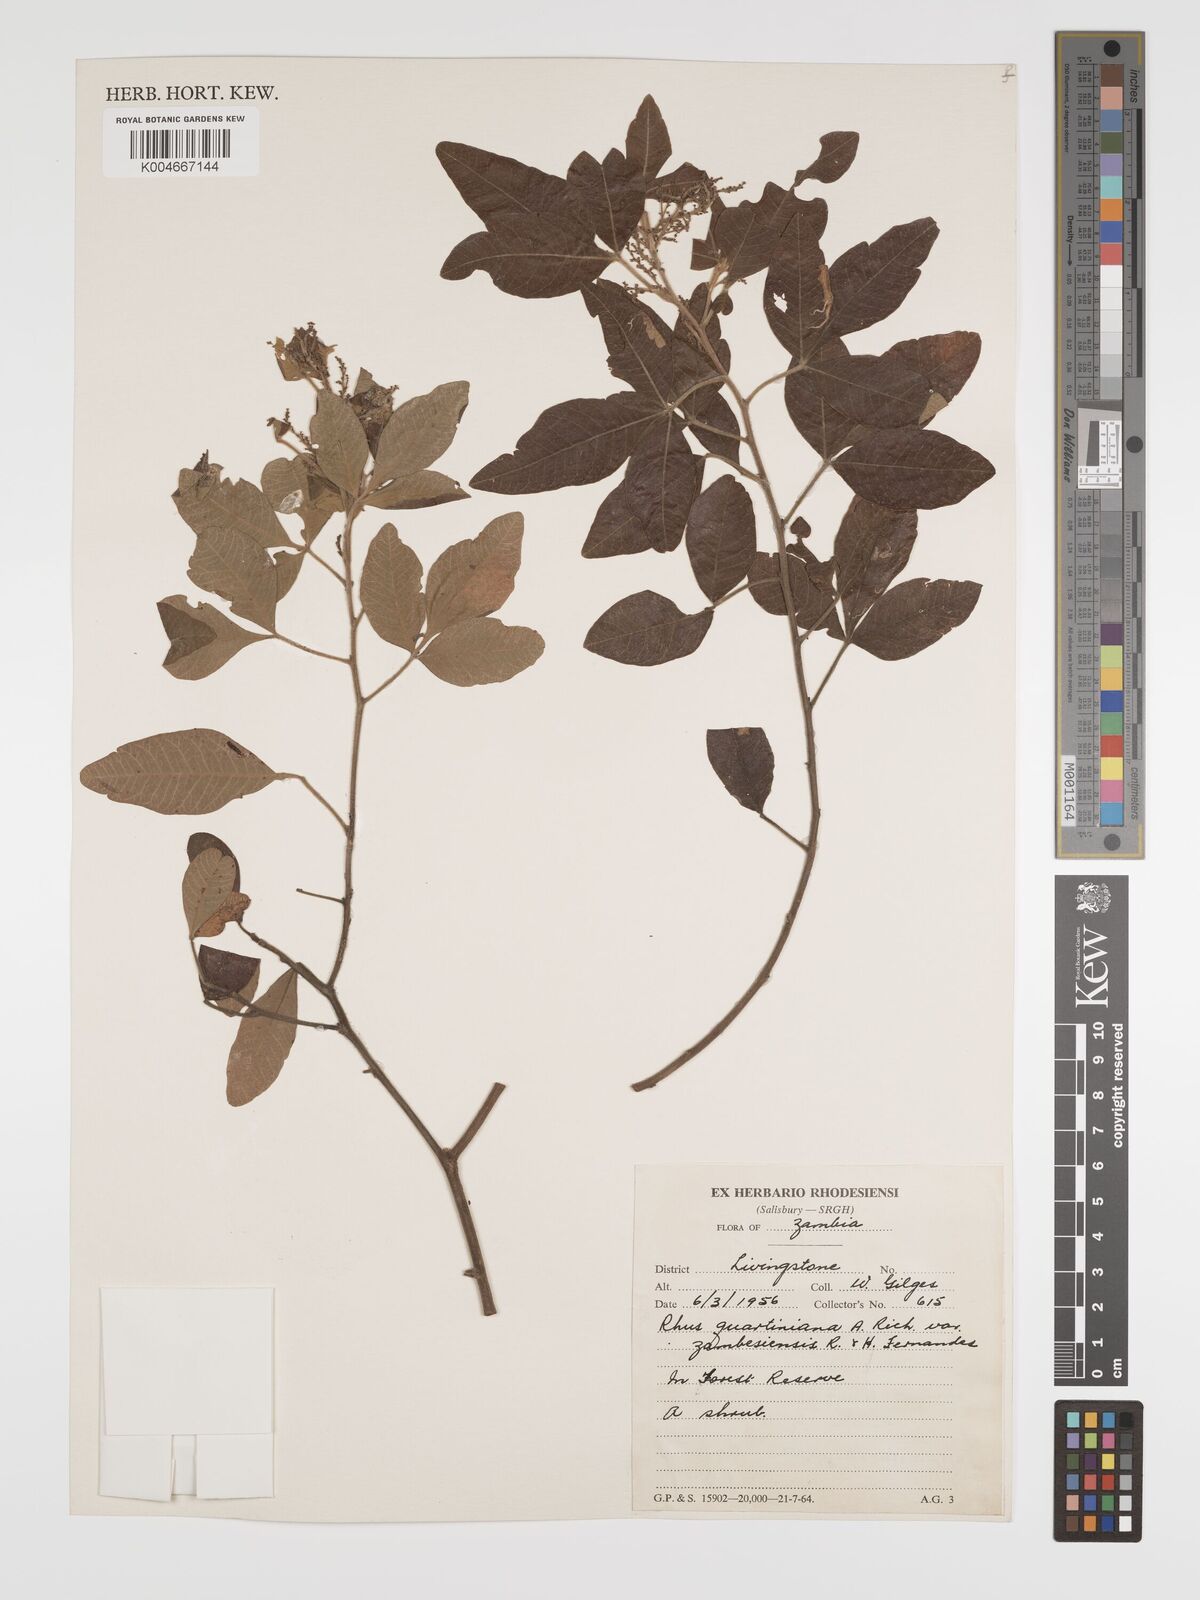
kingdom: Plantae
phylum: Tracheophyta
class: Magnoliopsida
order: Sapindales
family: Anacardiaceae
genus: Searsia
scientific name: Searsia quartiniana
